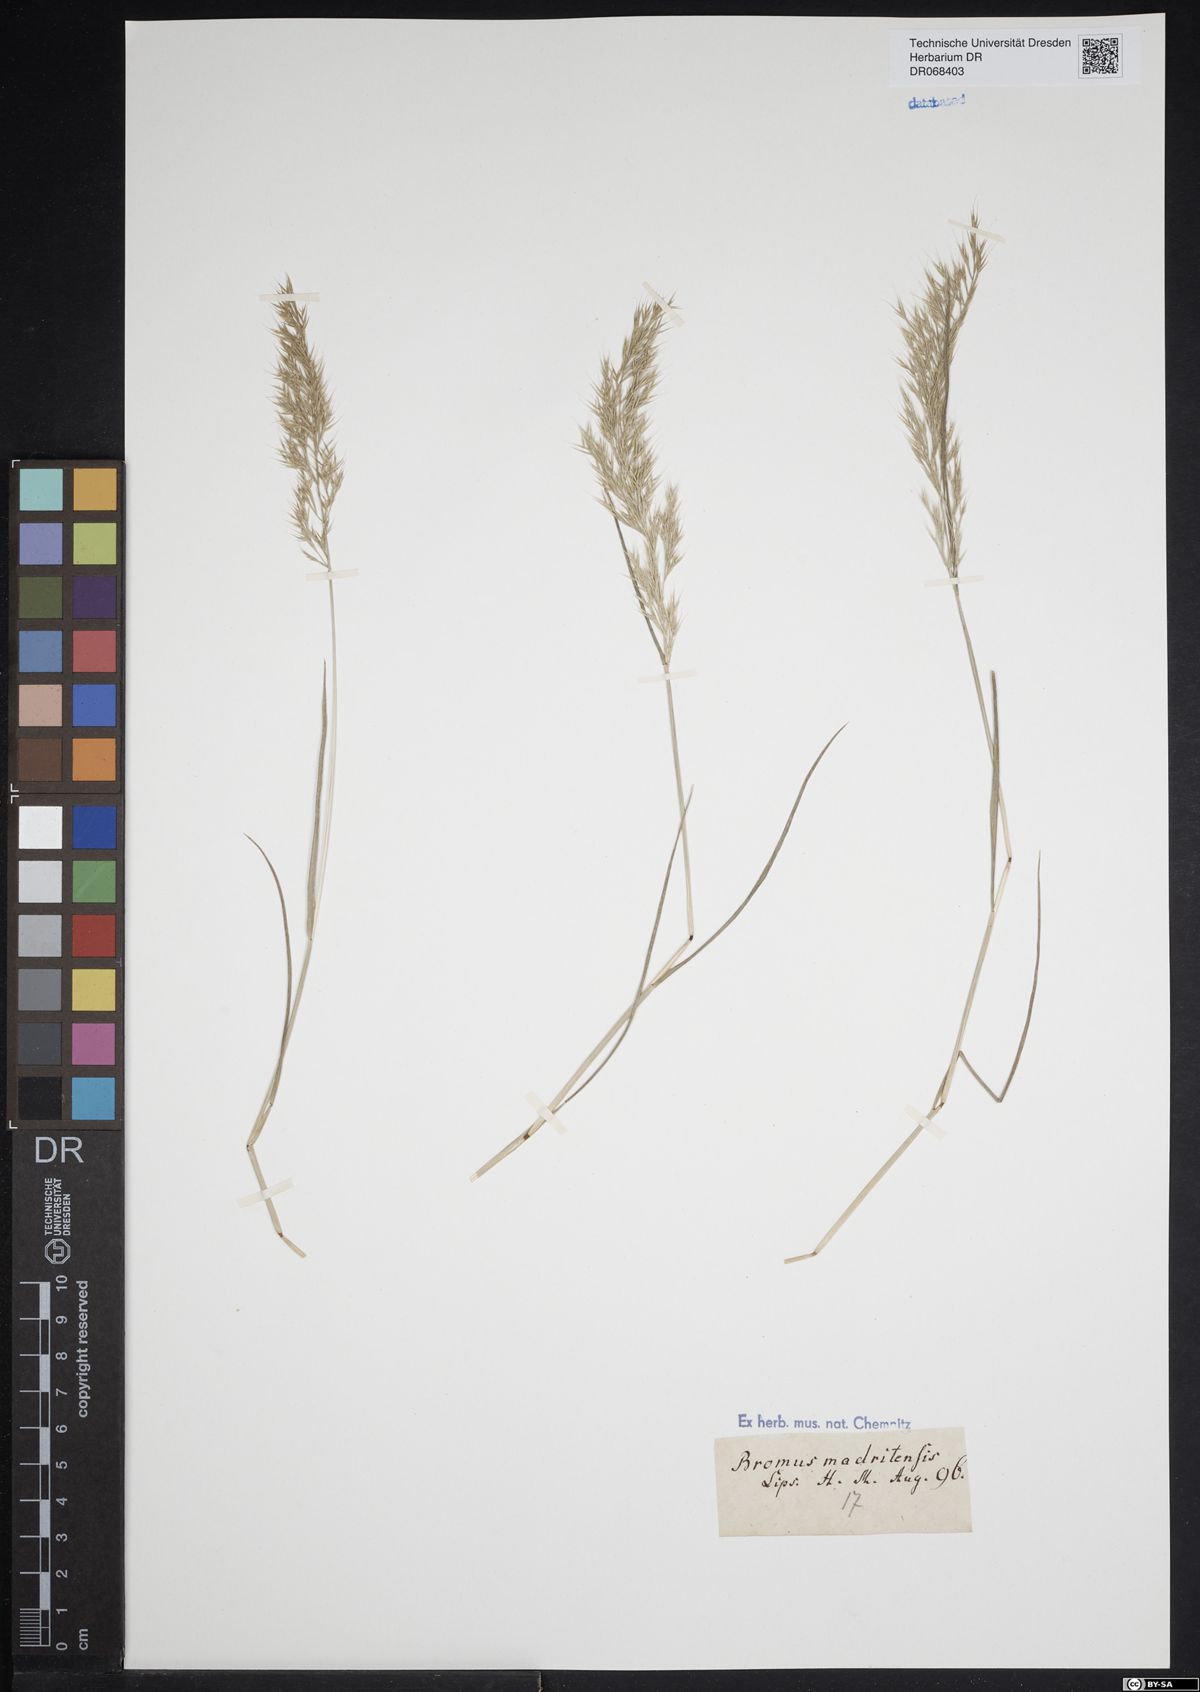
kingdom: Plantae
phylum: Tracheophyta
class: Liliopsida
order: Poales
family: Poaceae
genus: Bromus
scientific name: Bromus madritensis
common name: Compact brome
